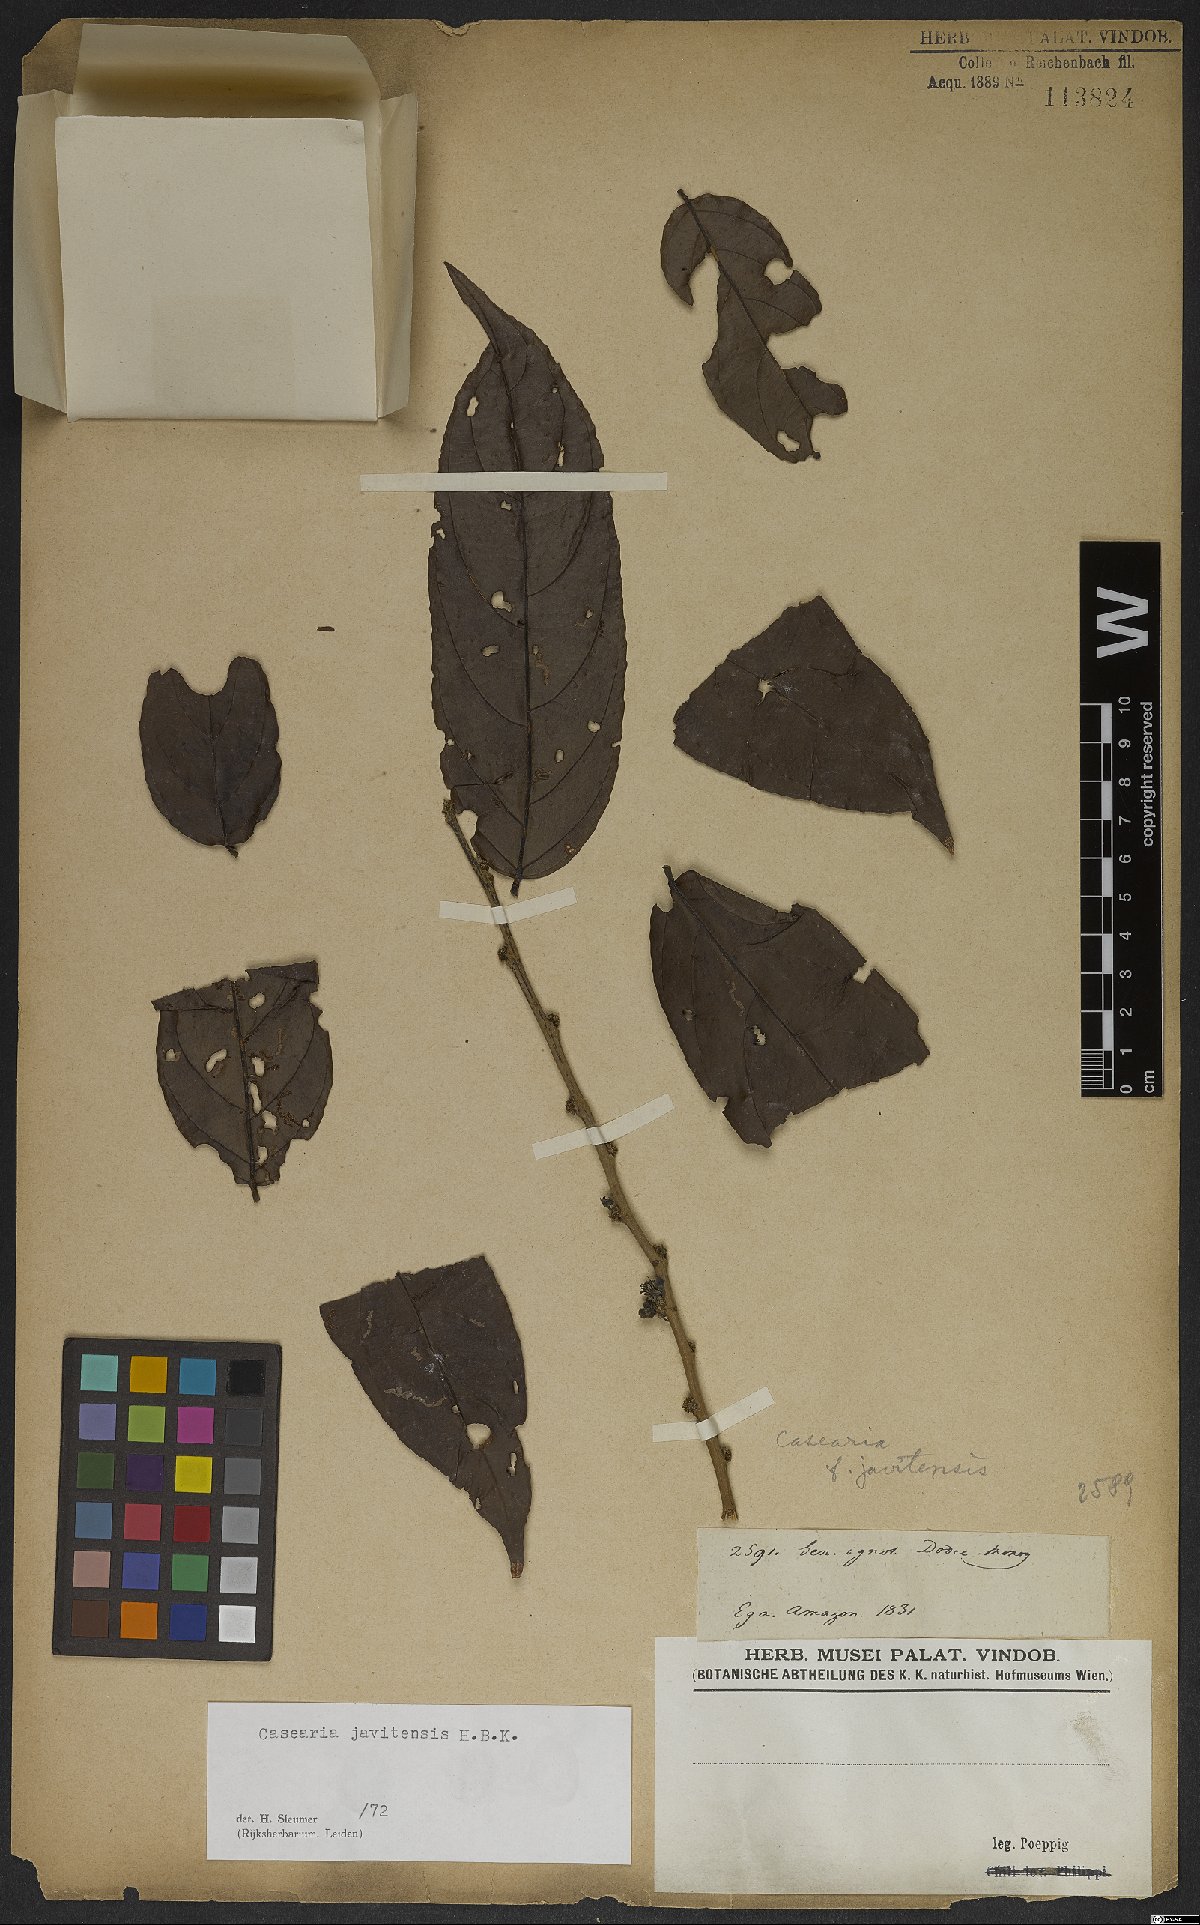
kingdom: Plantae
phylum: Tracheophyta
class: Magnoliopsida
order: Malpighiales
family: Salicaceae
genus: Piparea
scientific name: Piparea multiflora
